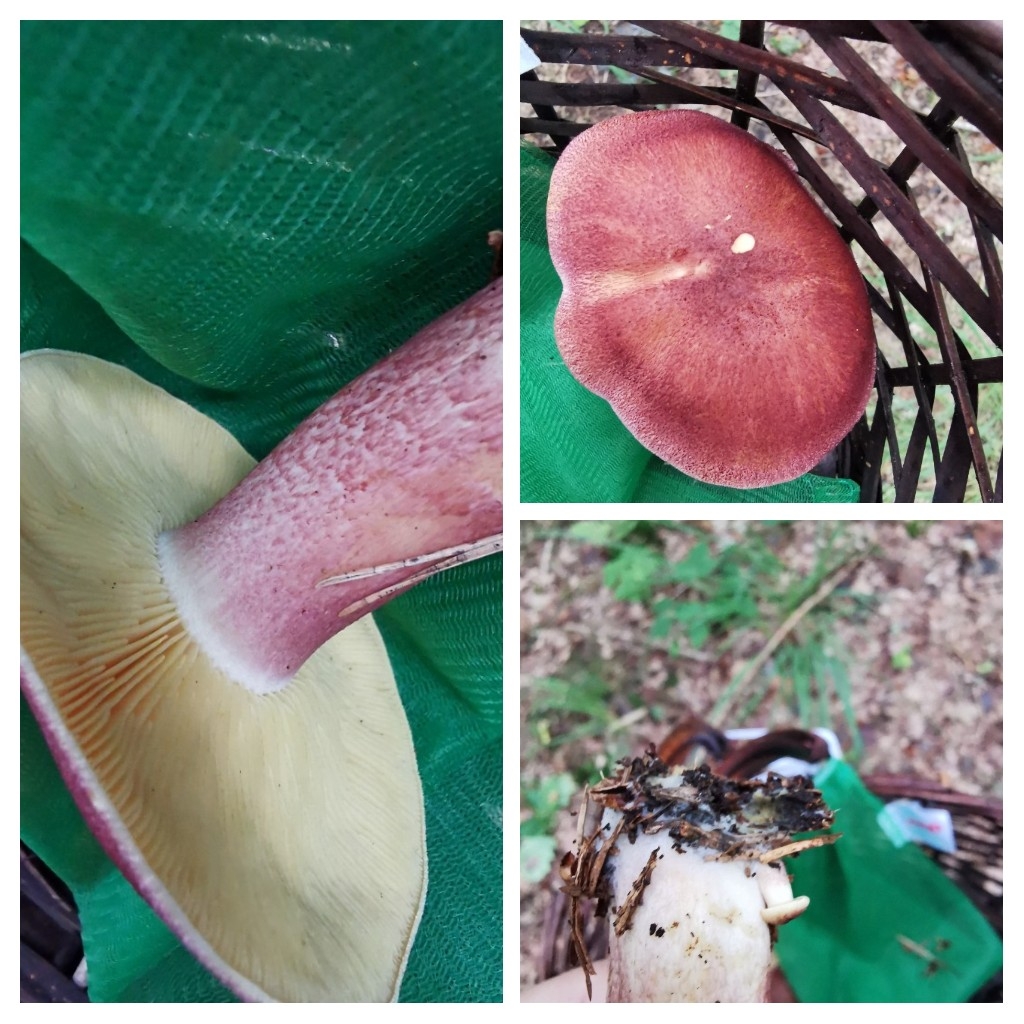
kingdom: Fungi
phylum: Basidiomycota
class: Agaricomycetes
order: Agaricales
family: Tricholomataceae
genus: Tricholomopsis
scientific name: Tricholomopsis rutilans
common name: purpur-væbnerhat
